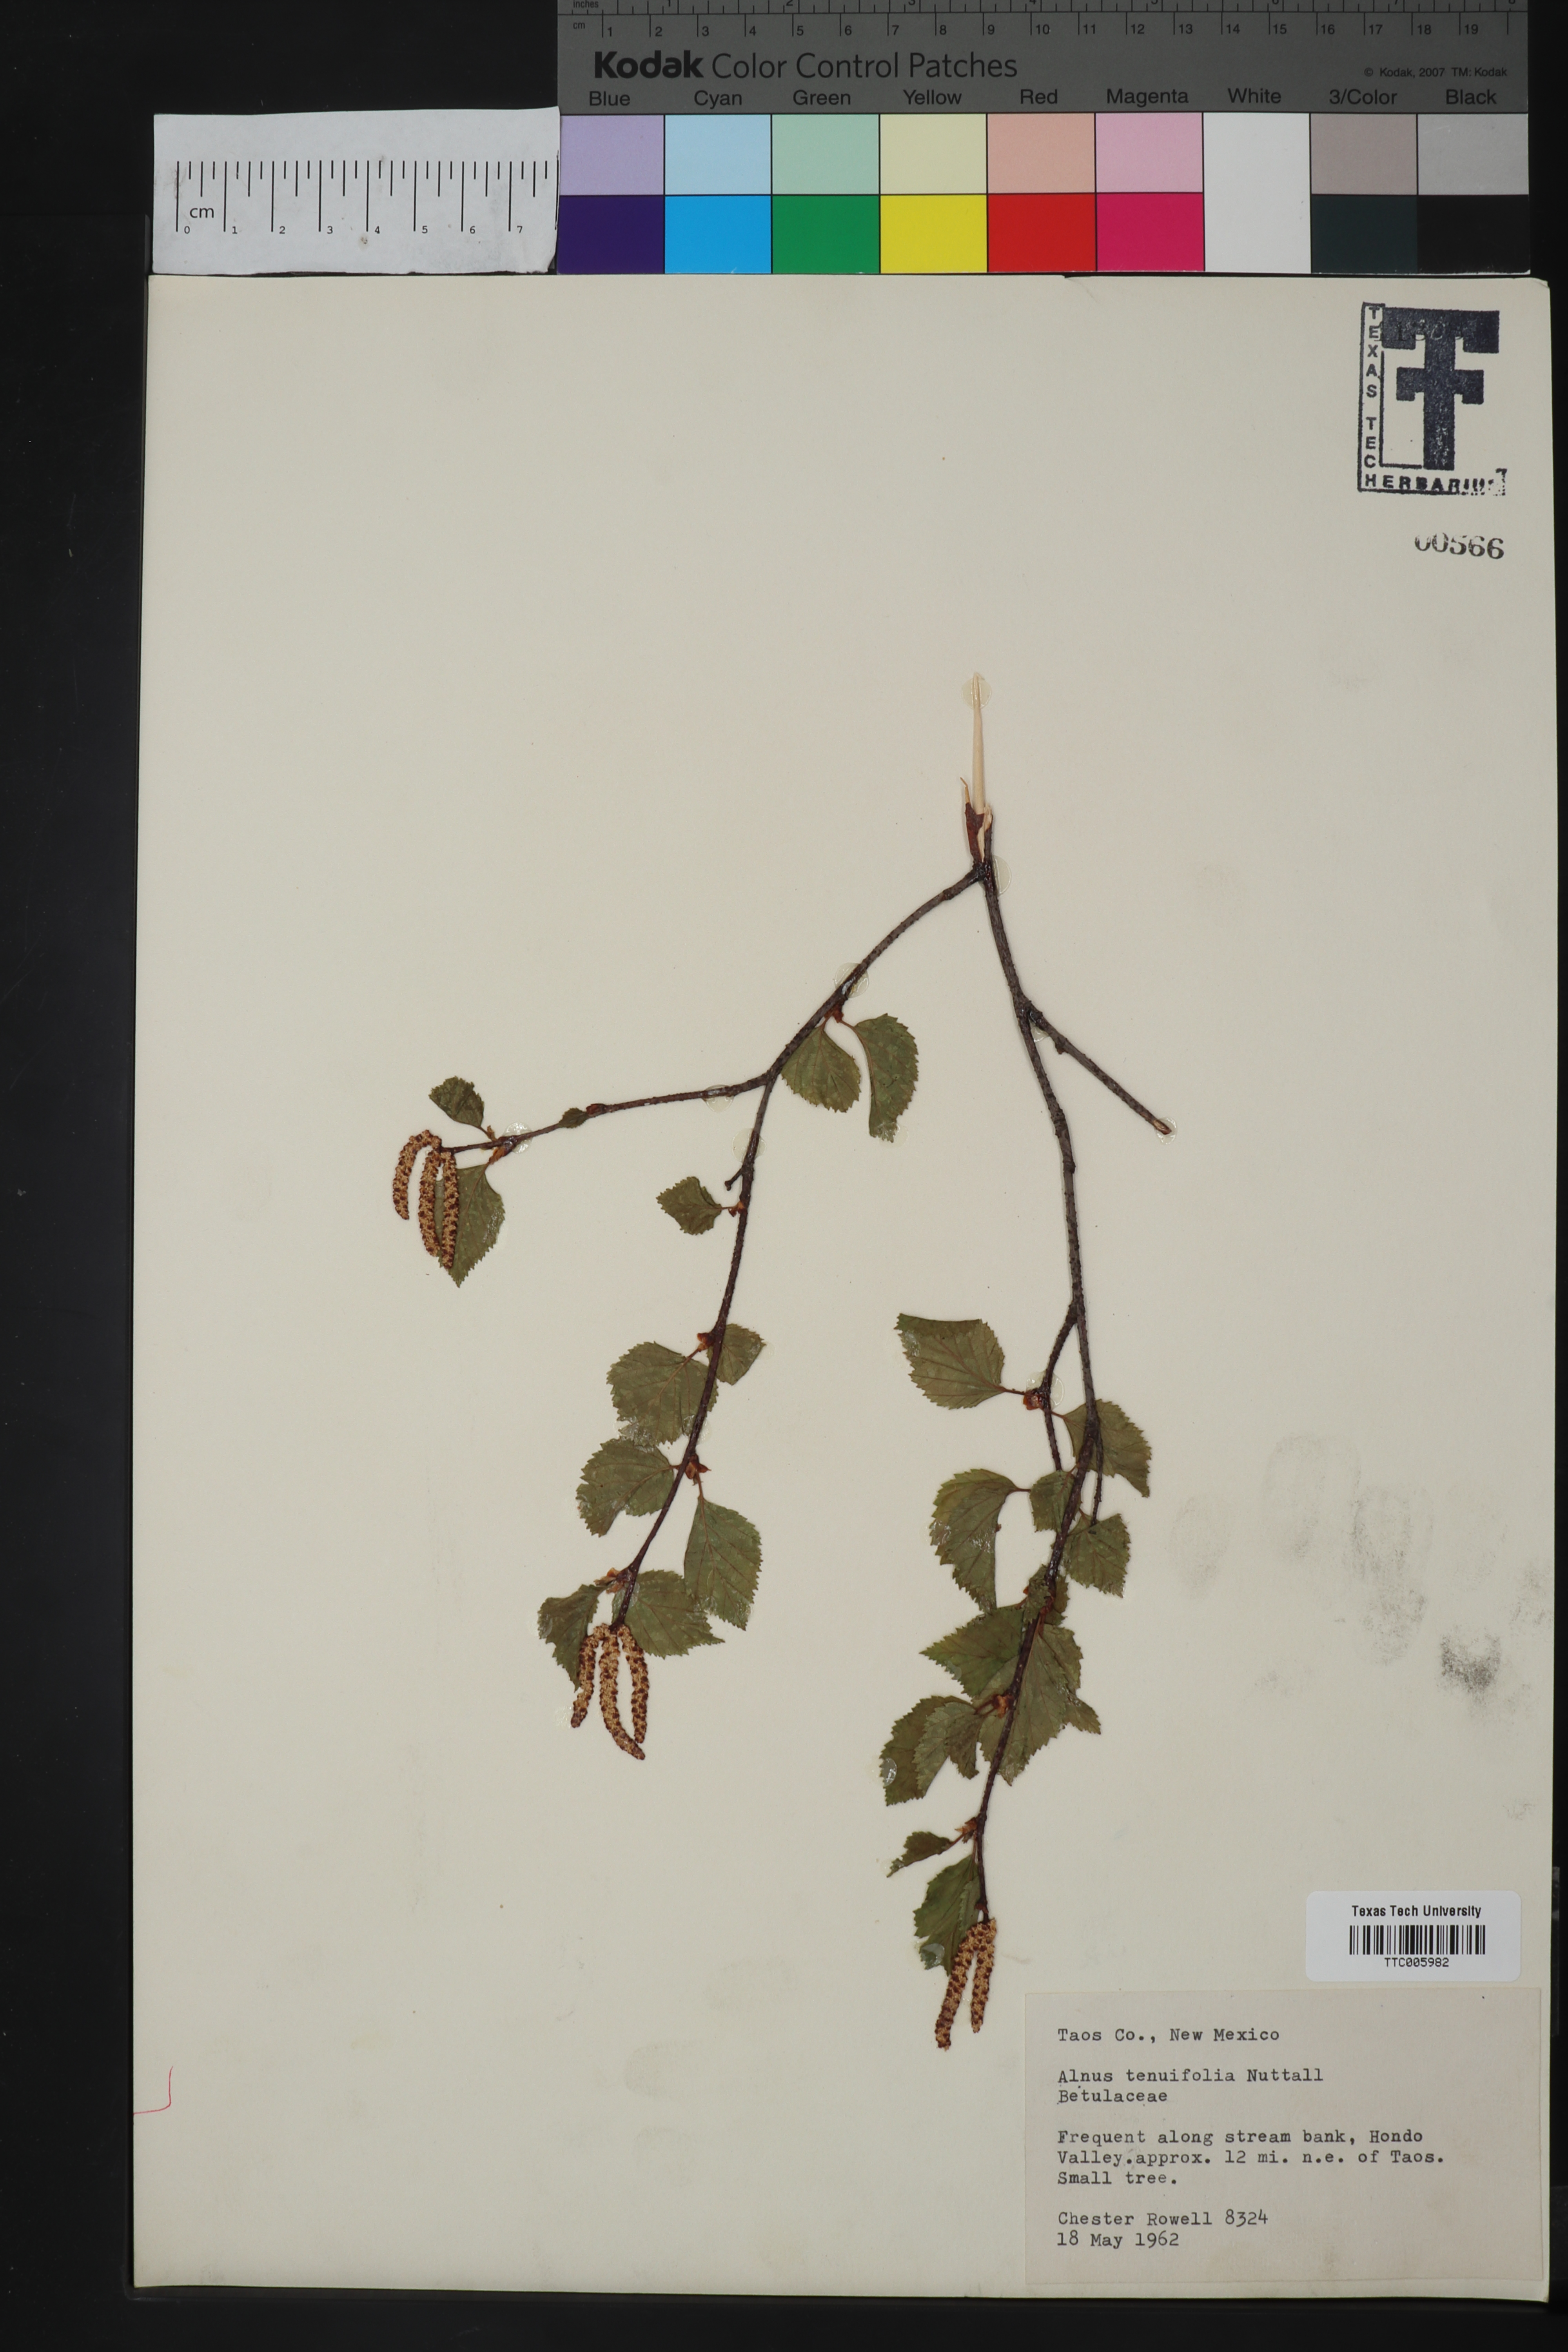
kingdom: Plantae
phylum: Tracheophyta
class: Magnoliopsida
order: Fagales
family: Betulaceae
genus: Alnus
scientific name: Alnus incana
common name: Grey alder
